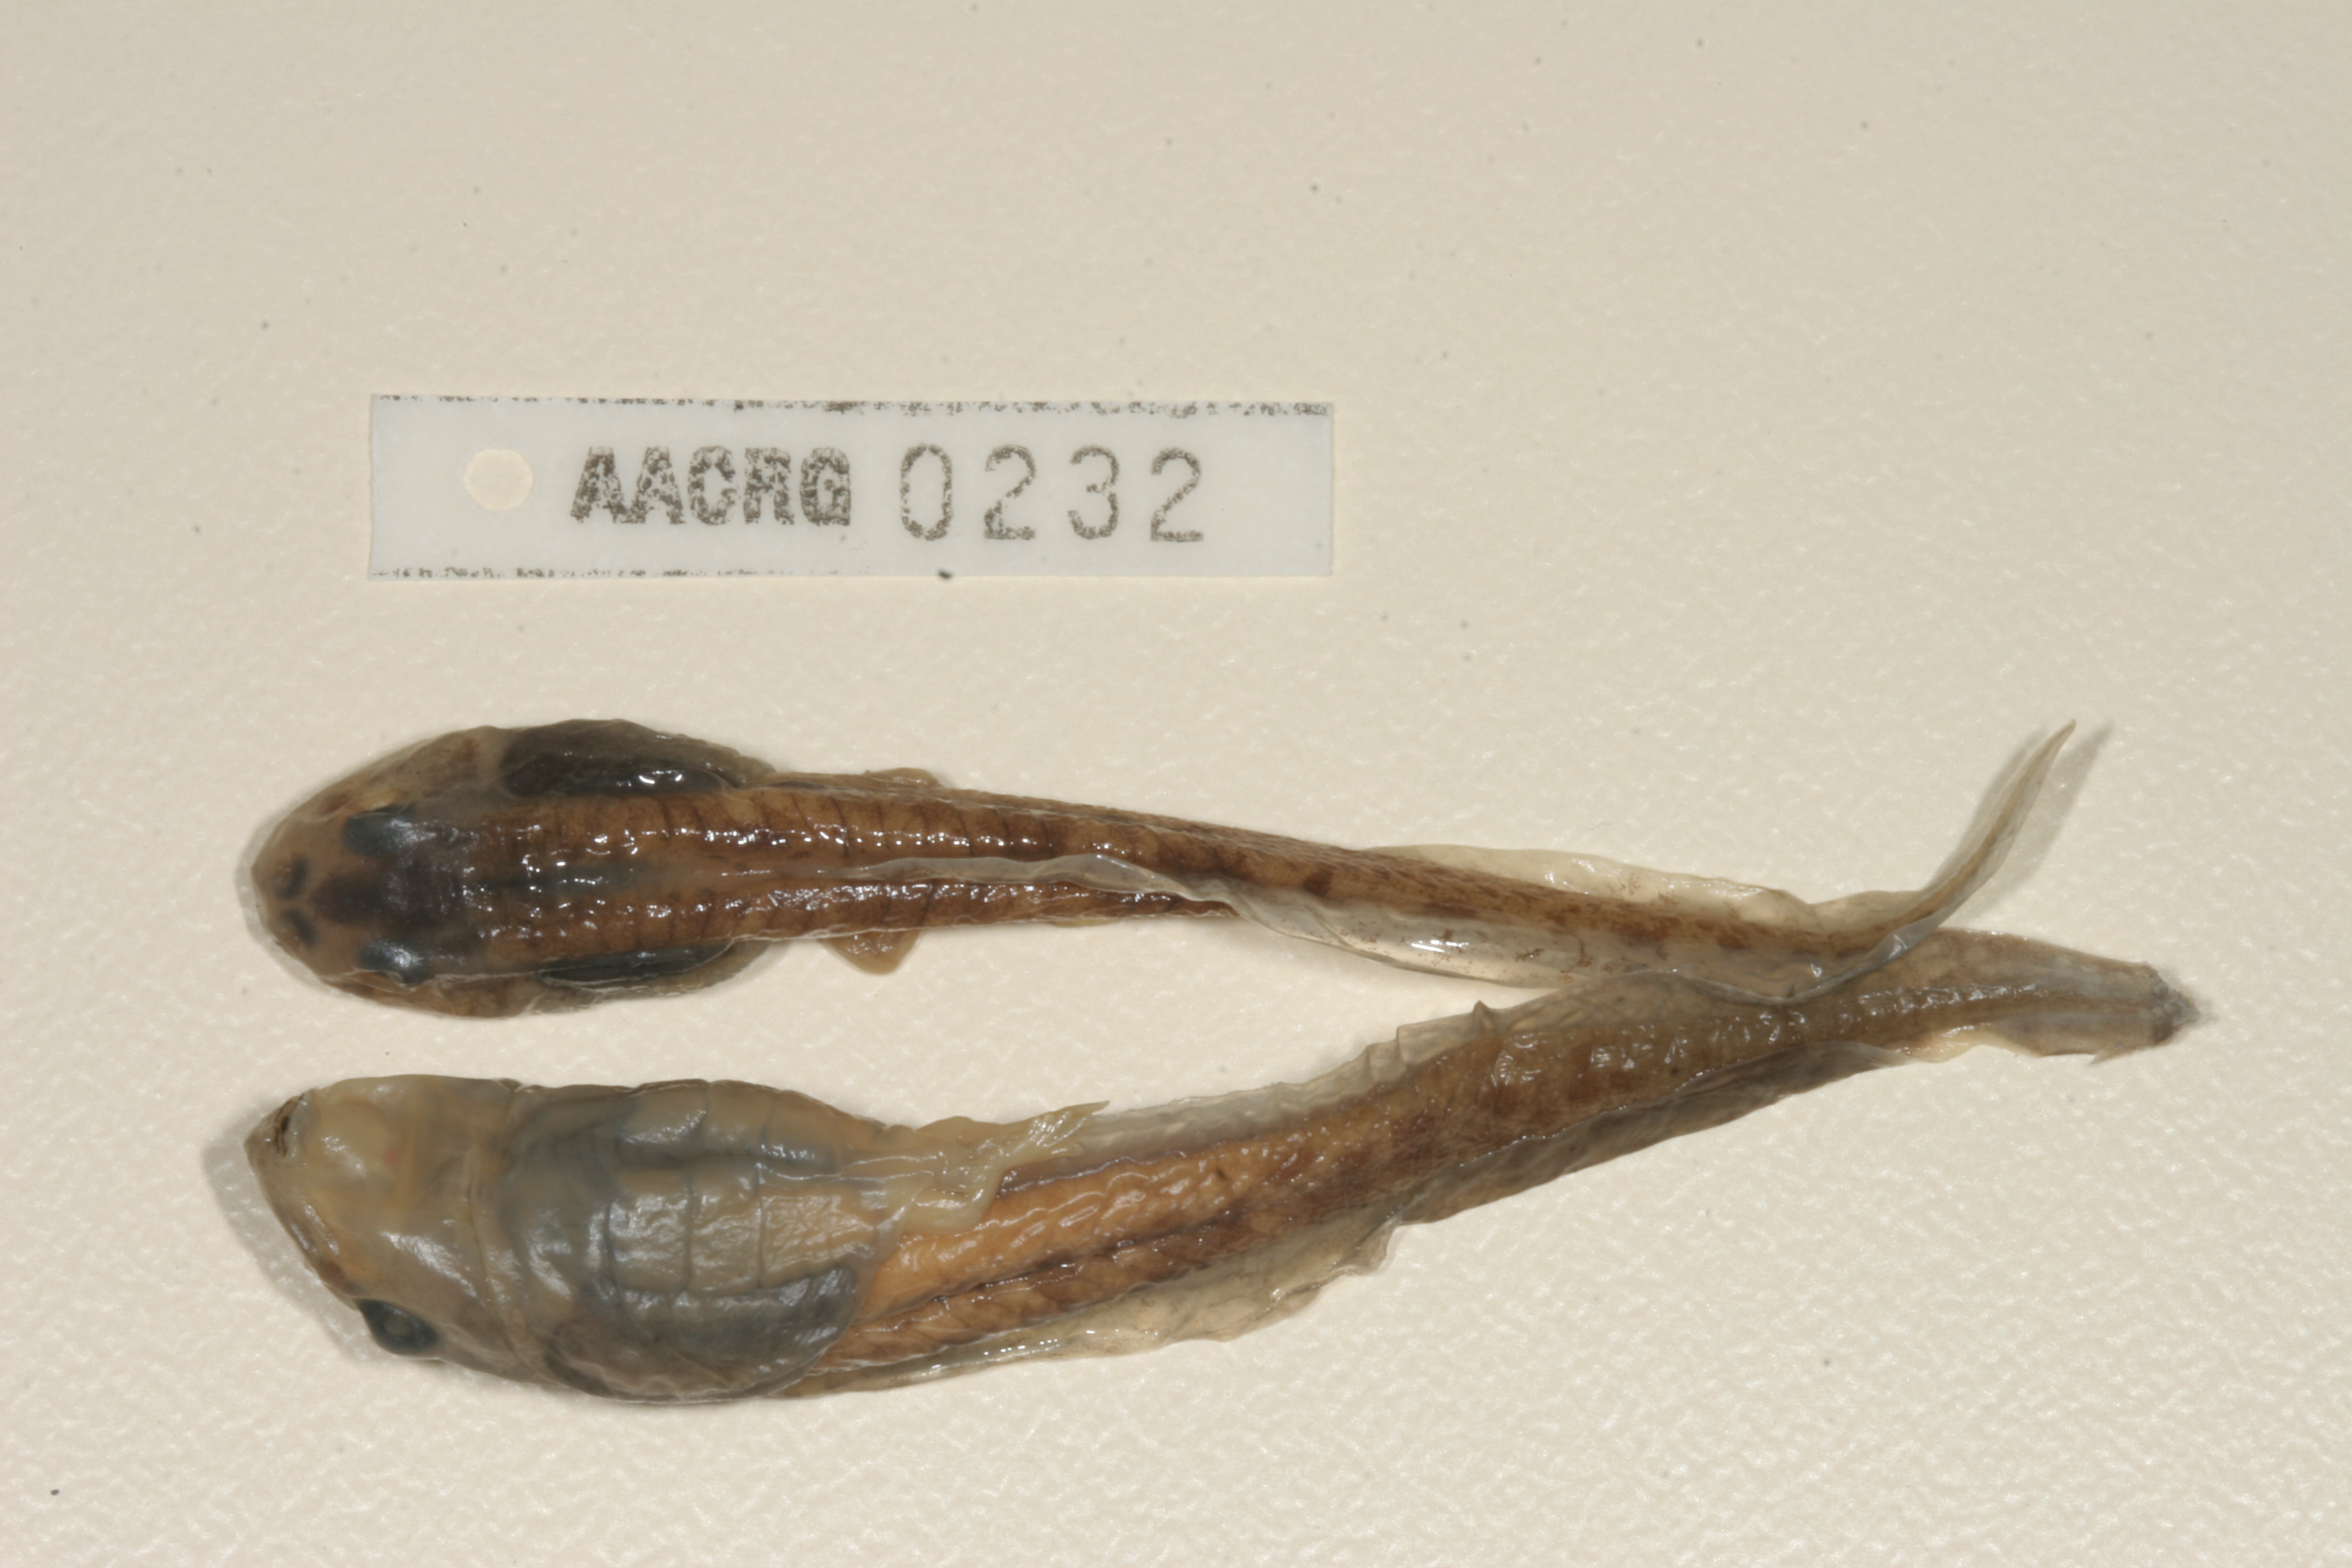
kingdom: Animalia
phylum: Chordata
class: Amphibia
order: Anura
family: Pyxicephalidae
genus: Amietia
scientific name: Amietia angolensis
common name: Dusky-throated frog
